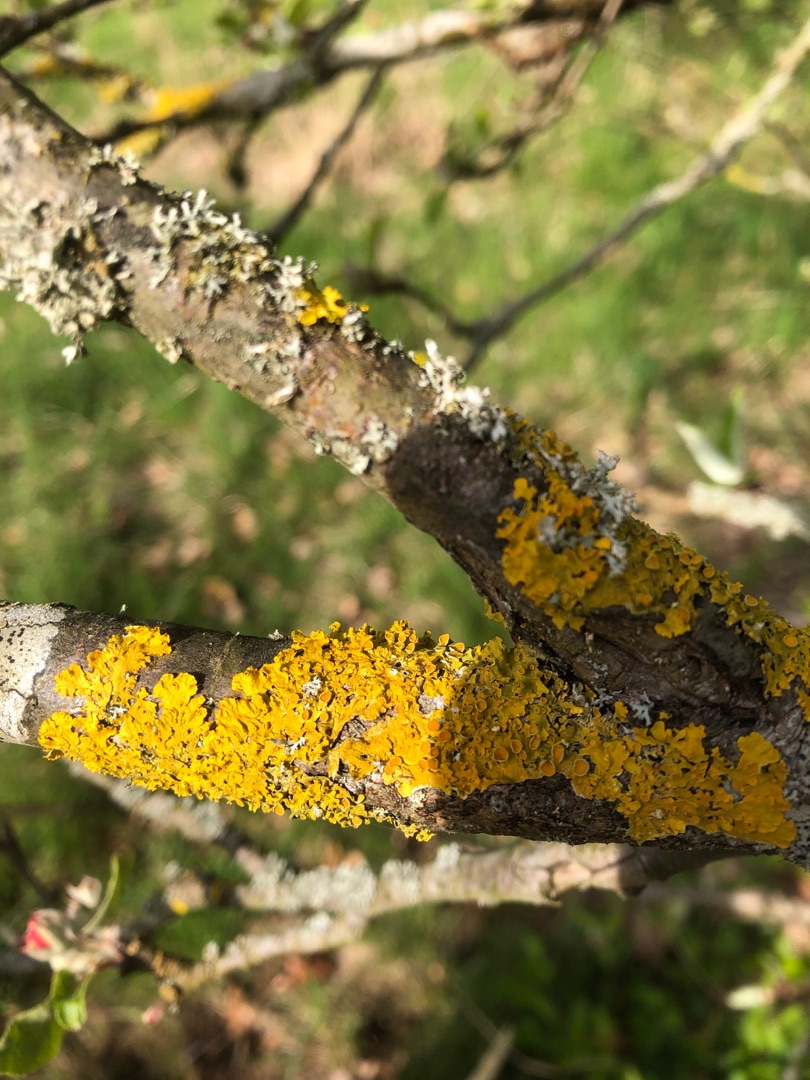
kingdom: Fungi
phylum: Ascomycota
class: Lecanoromycetes
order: Teloschistales
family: Teloschistaceae
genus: Xanthoria
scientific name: Xanthoria parietina
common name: Almindelig væggelav
